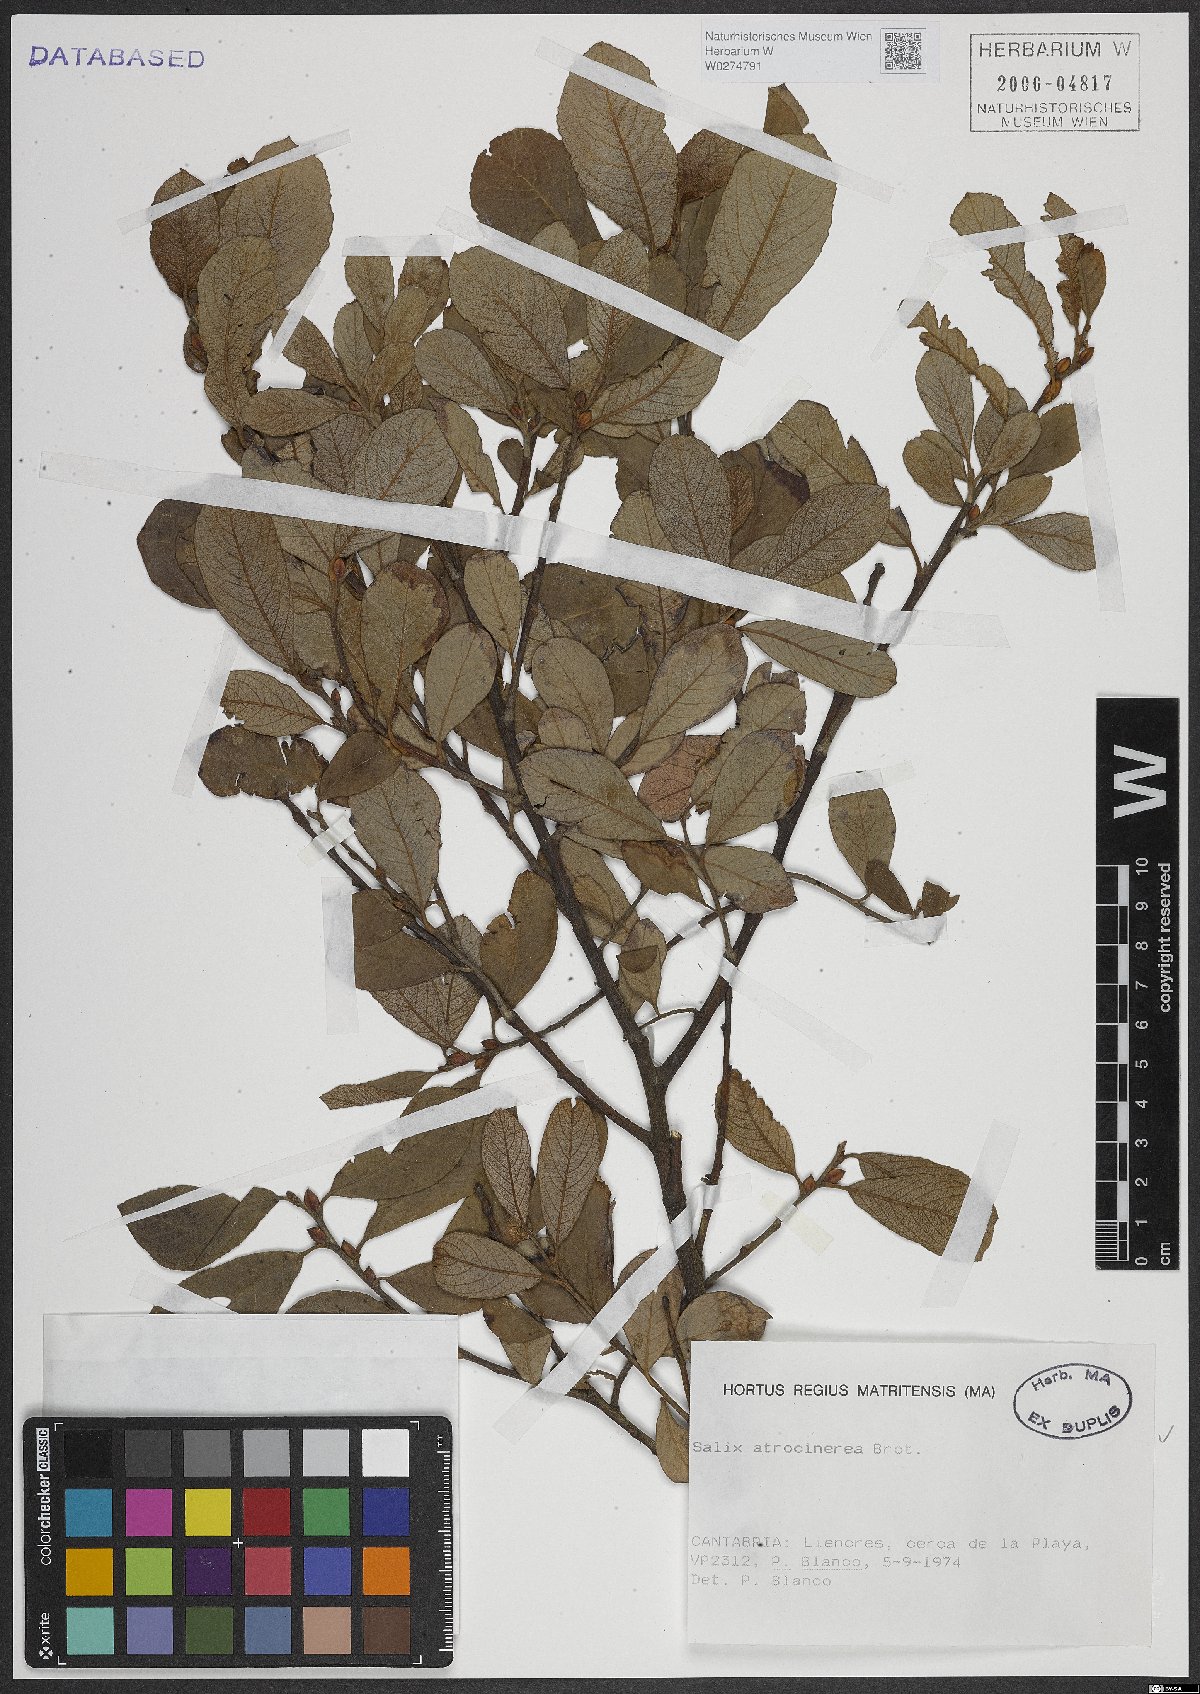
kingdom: Plantae
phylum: Tracheophyta
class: Magnoliopsida
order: Malpighiales
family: Salicaceae
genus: Salix
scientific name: Salix atrocinerea
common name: Rusty willow
